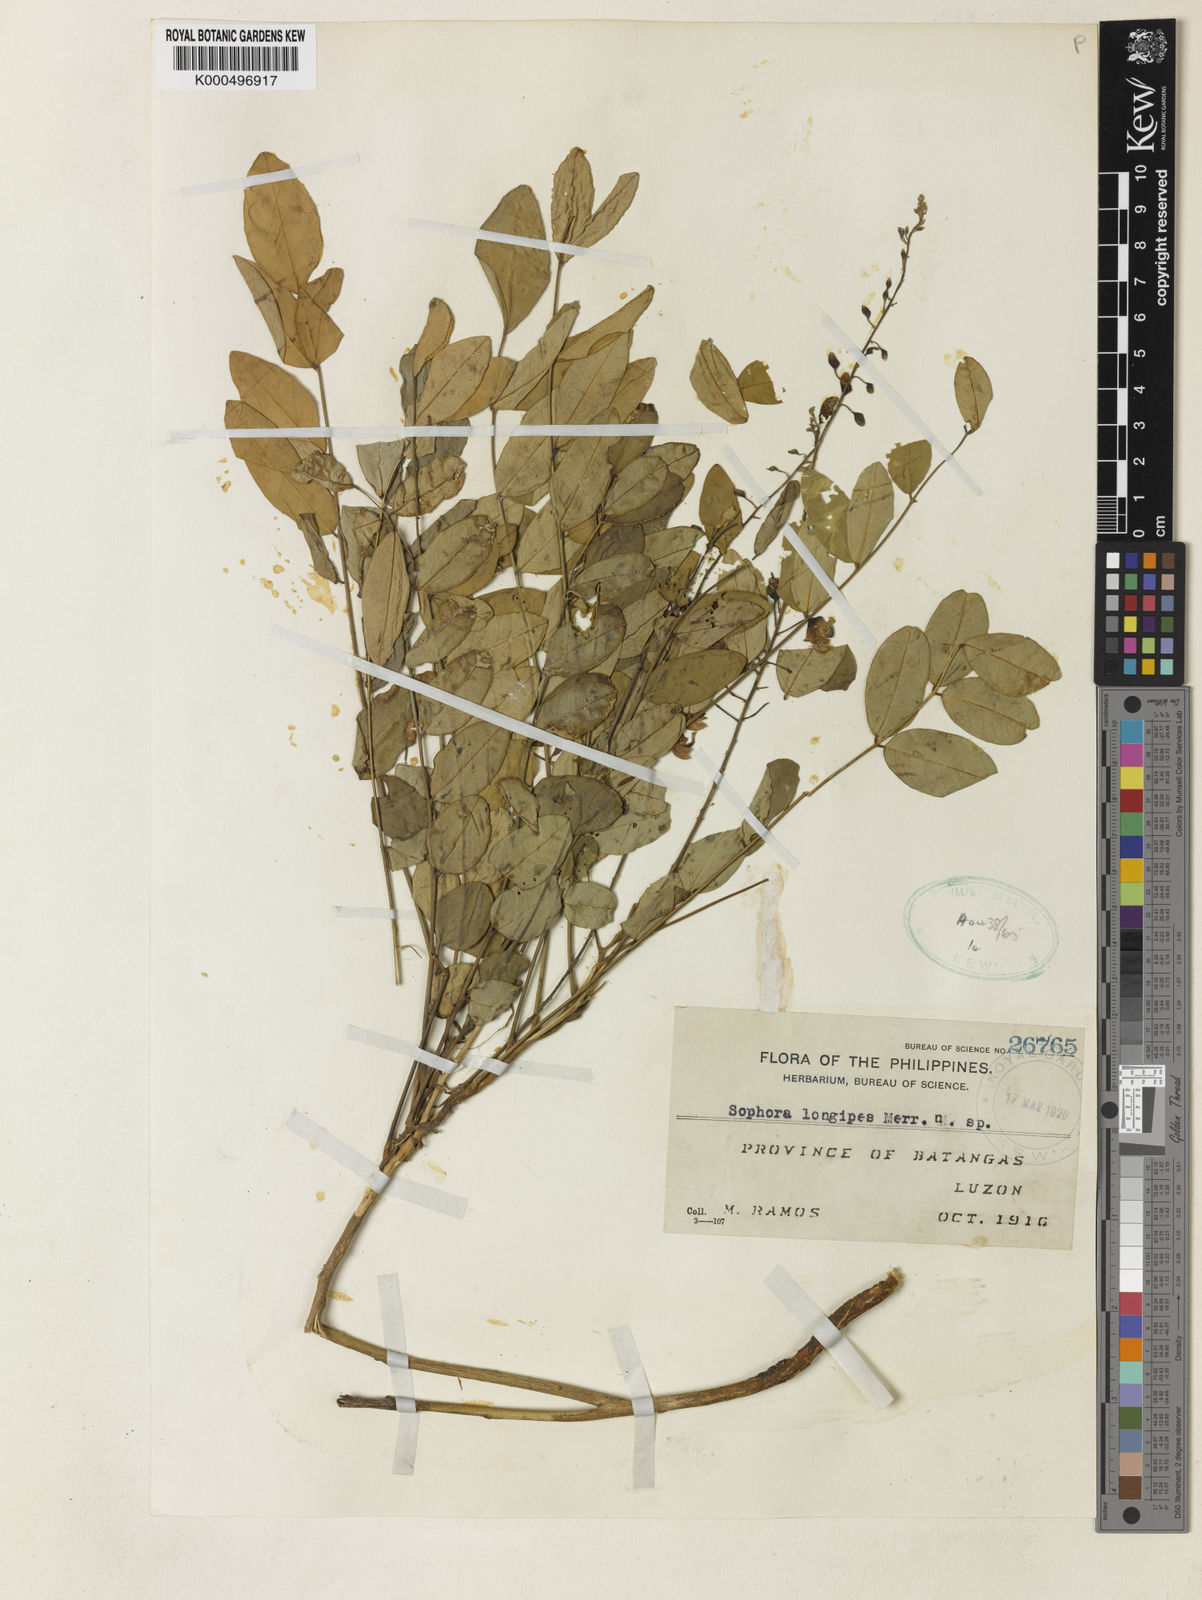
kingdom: Plantae
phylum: Tracheophyta
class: Magnoliopsida
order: Fabales
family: Fabaceae
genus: Sophora
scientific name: Sophora longipes
